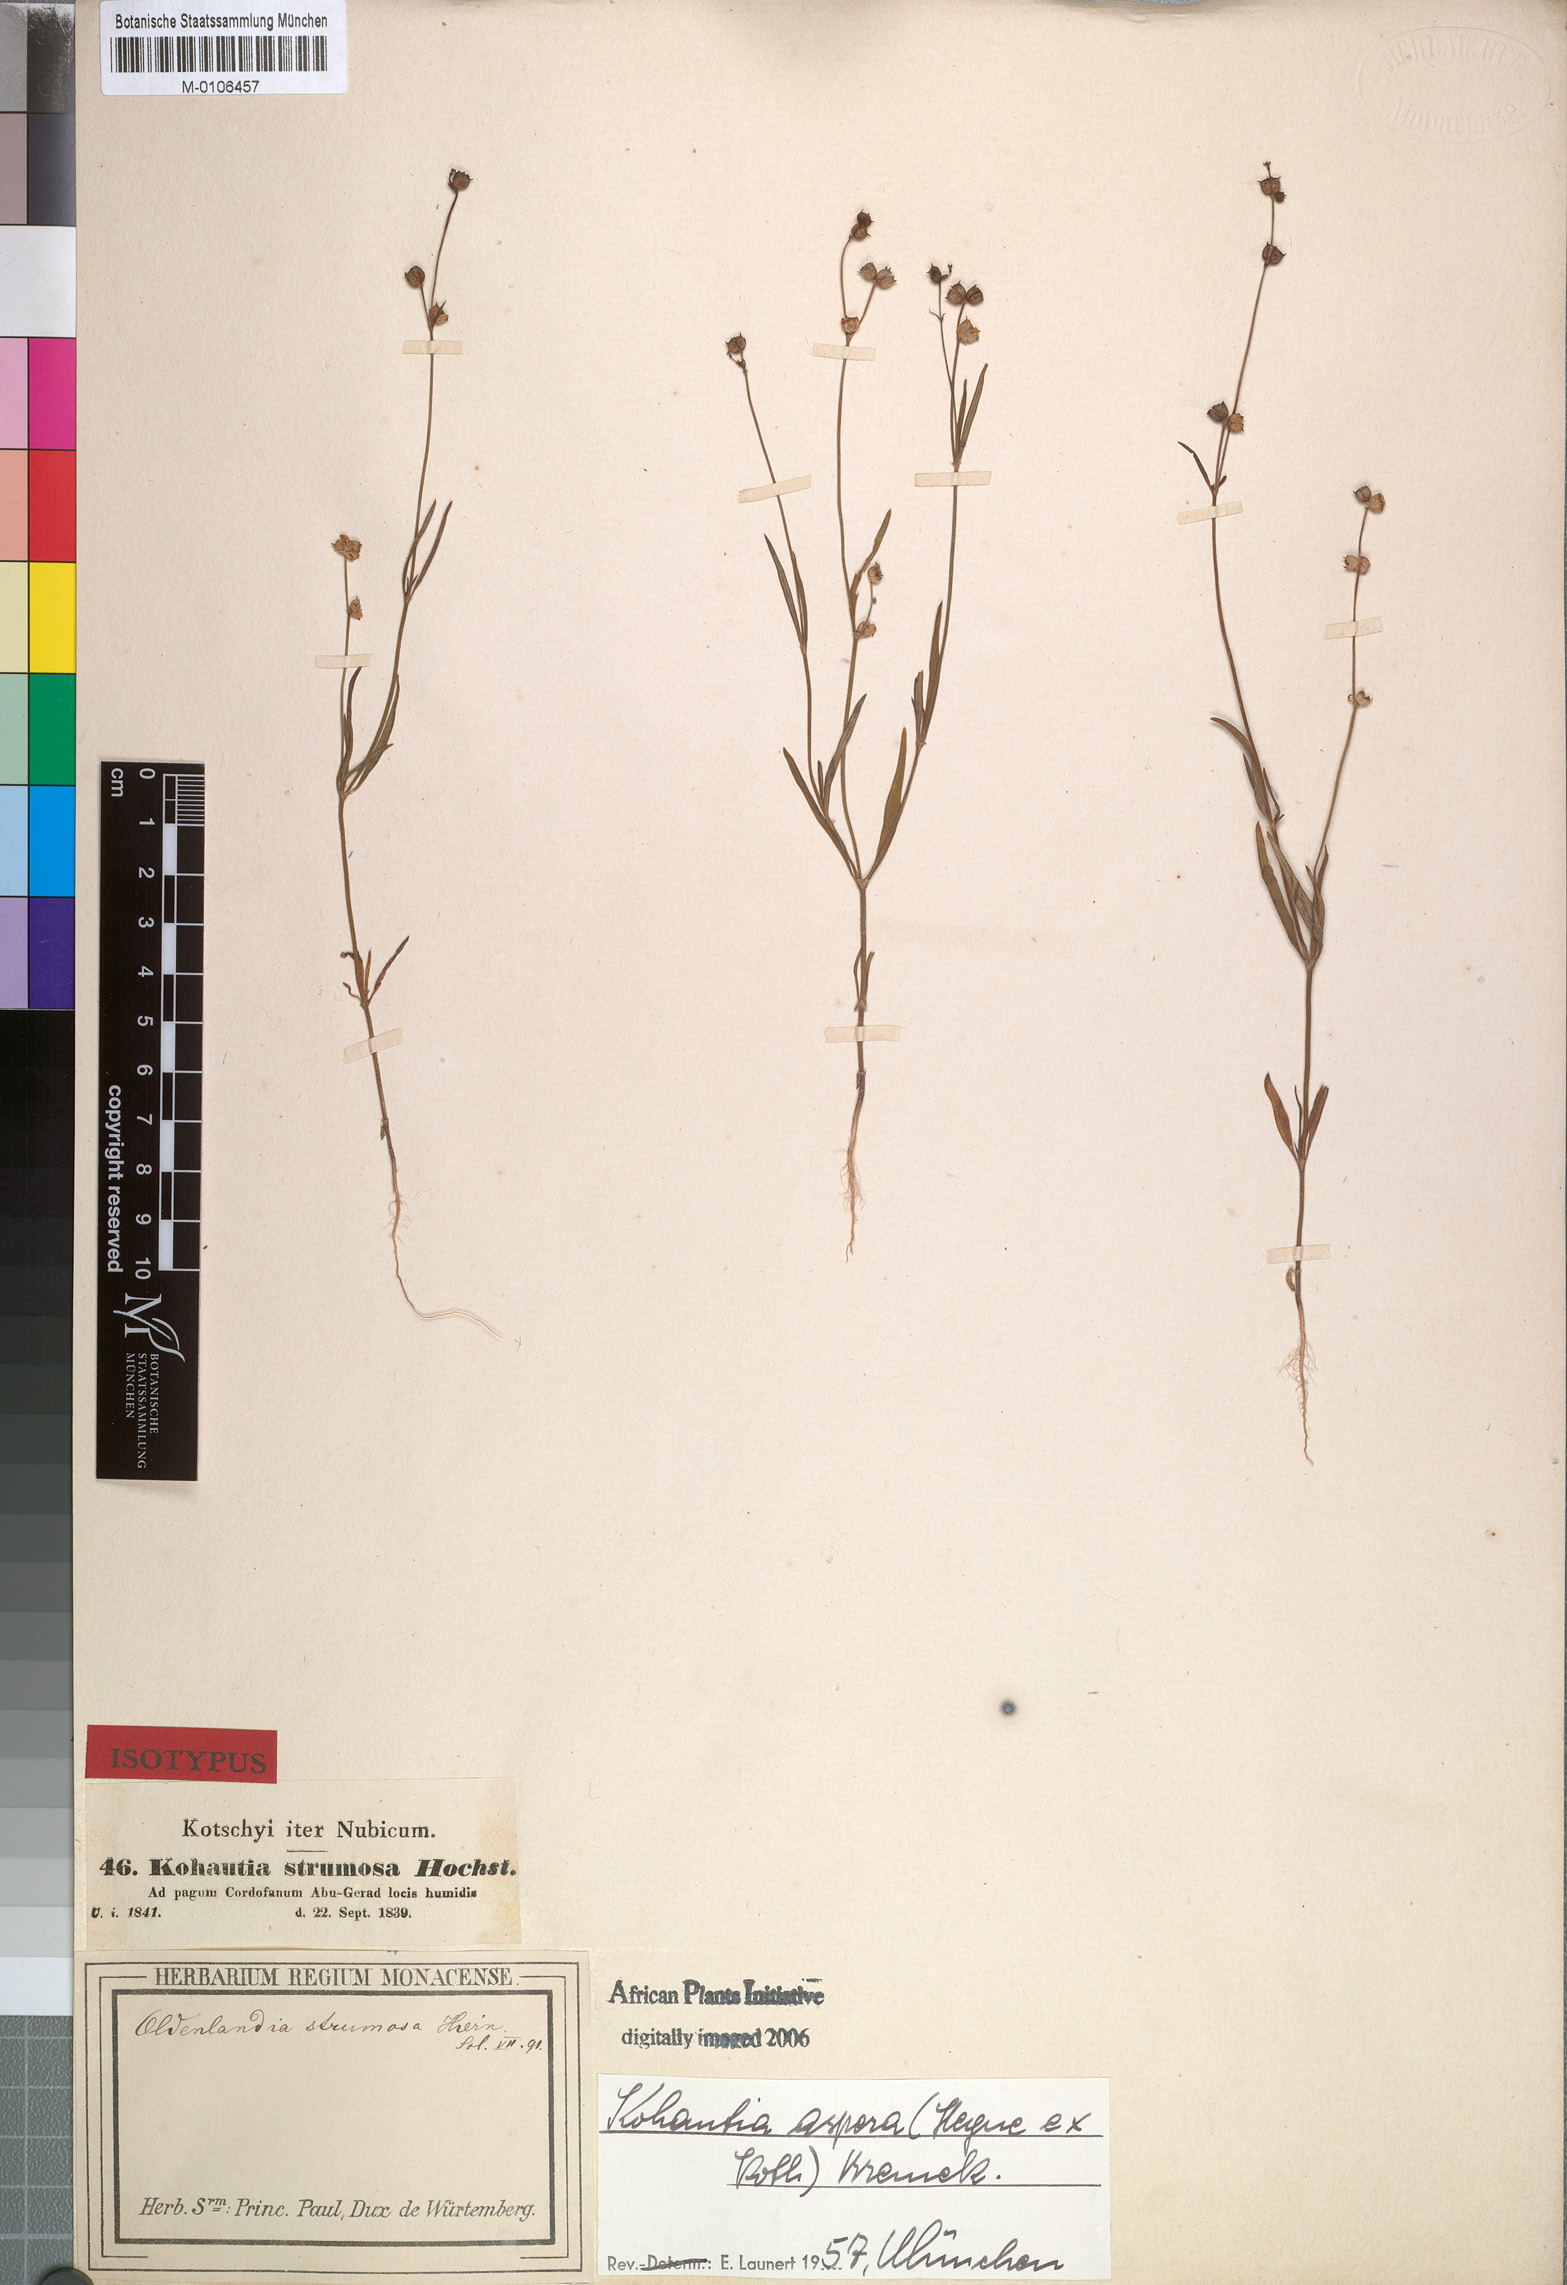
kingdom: Plantae
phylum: Tracheophyta
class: Magnoliopsida
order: Gentianales
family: Rubiaceae
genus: Kohautia
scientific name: Kohautia aspera
